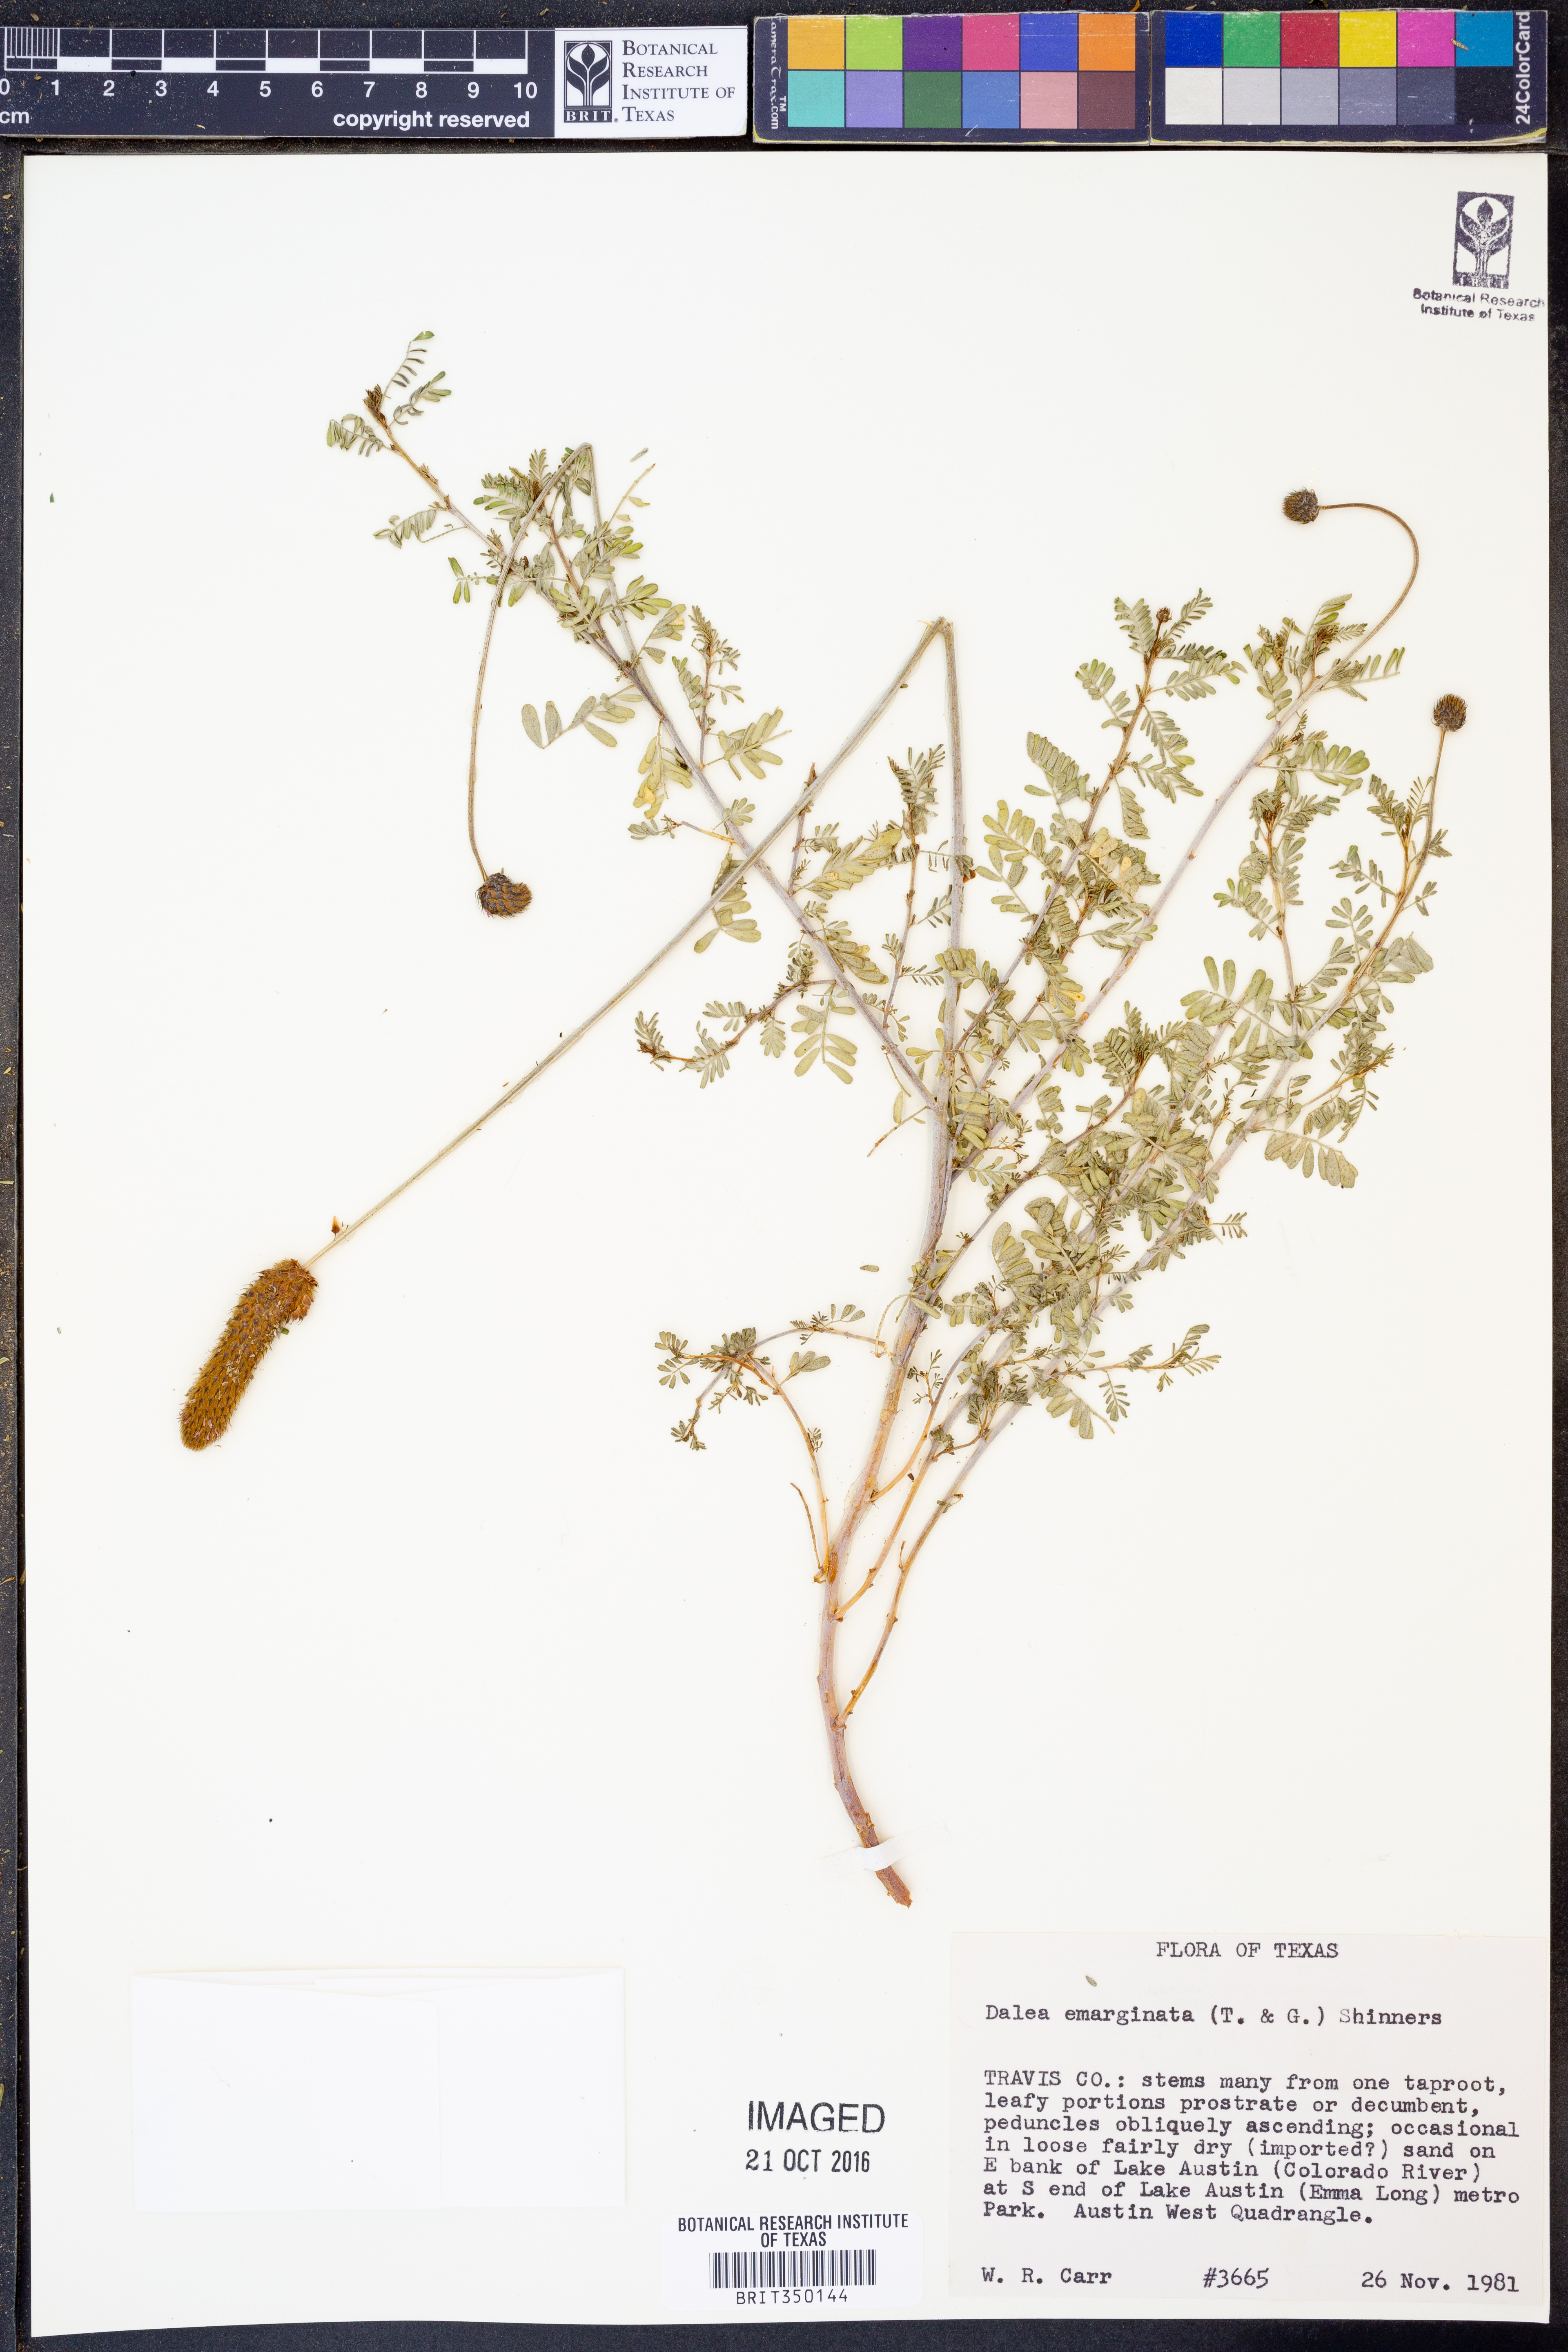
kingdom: Plantae
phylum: Tracheophyta
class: Magnoliopsida
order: Fabales
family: Fabaceae
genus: Dalea
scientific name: Dalea emarginata
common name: Wedgeleaf prairie clover
